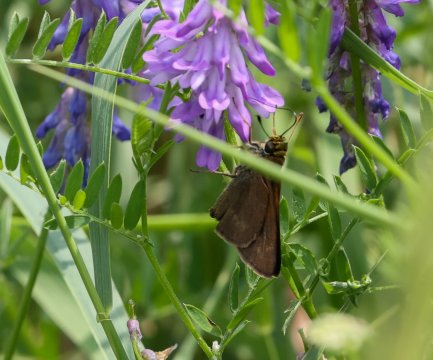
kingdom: Animalia
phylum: Arthropoda
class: Insecta
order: Lepidoptera
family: Hesperiidae
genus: Euphyes
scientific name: Euphyes vestris
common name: Dun Skipper
